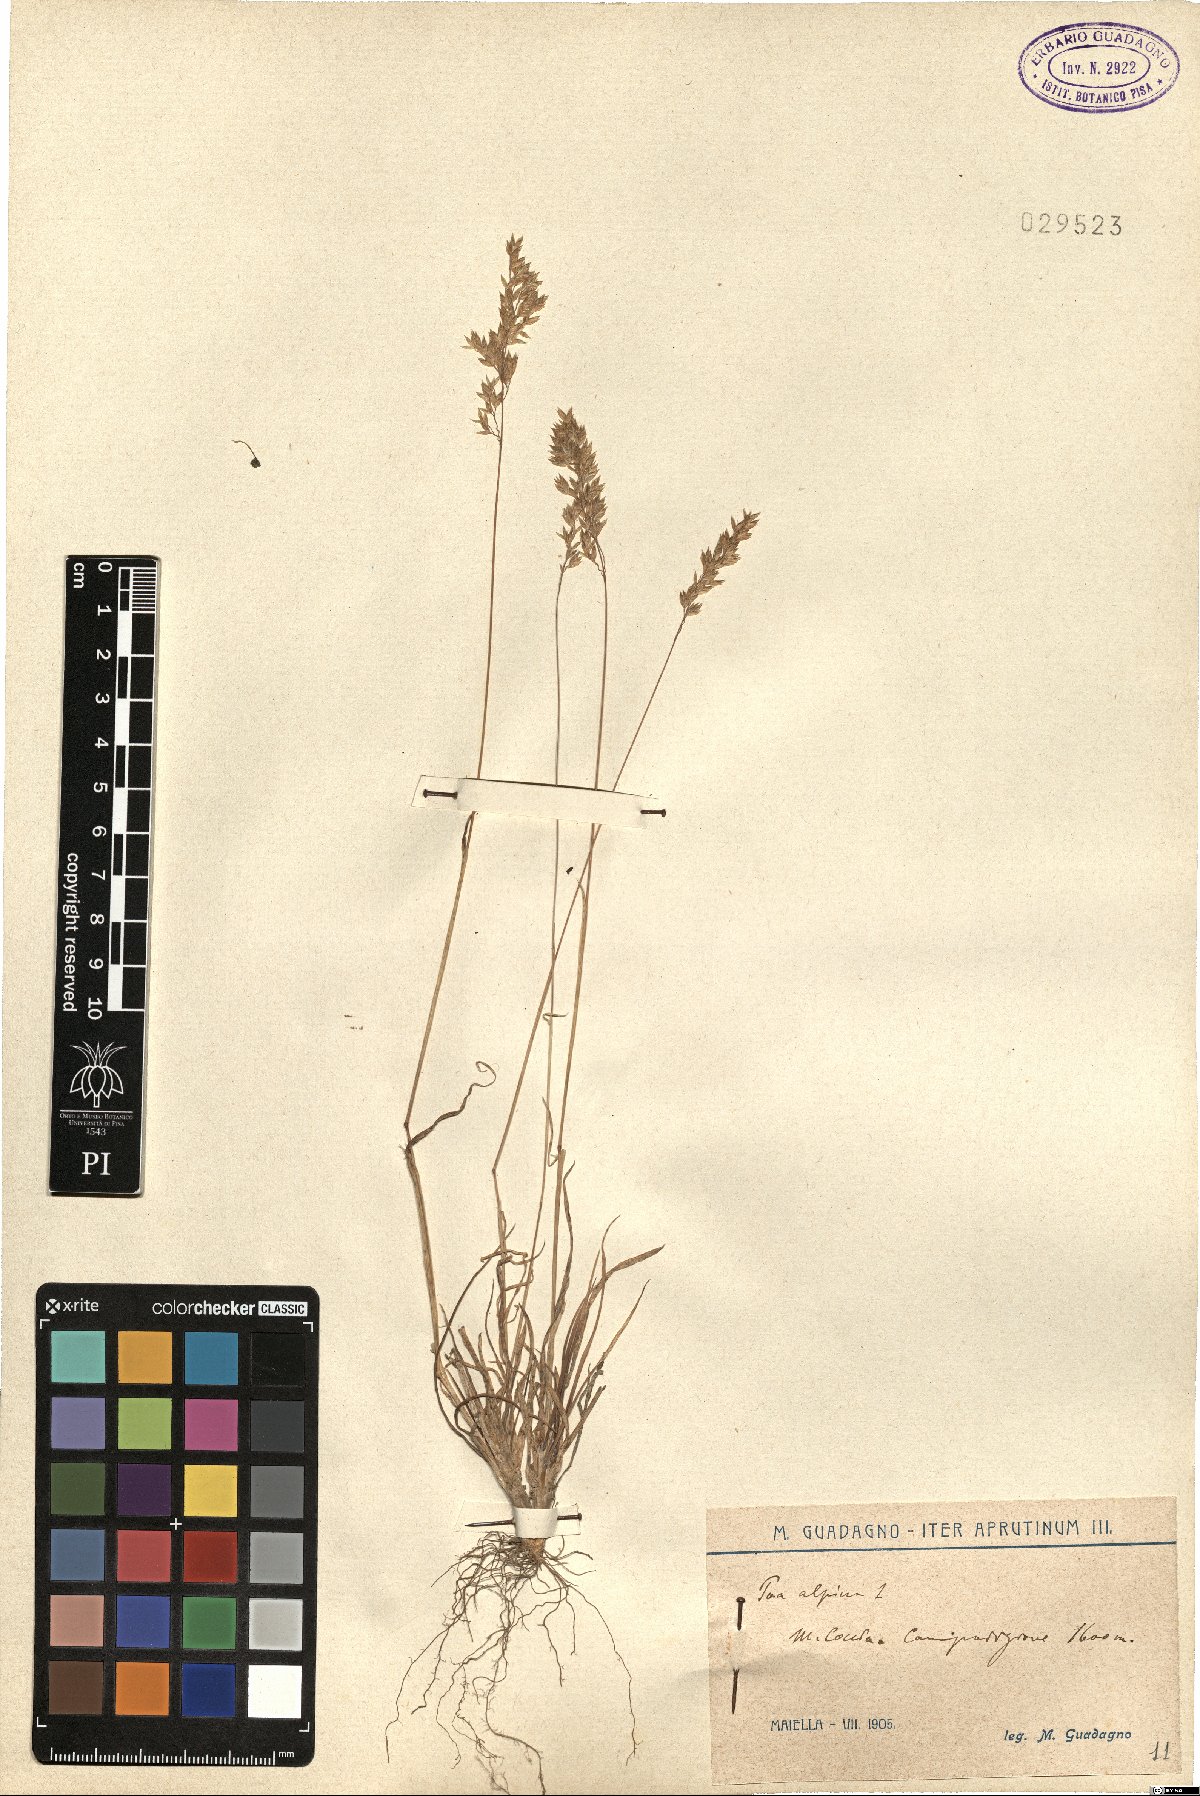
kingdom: Plantae
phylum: Tracheophyta
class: Liliopsida
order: Poales
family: Poaceae
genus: Poa
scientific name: Poa alpina
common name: Alpine bluegrass
